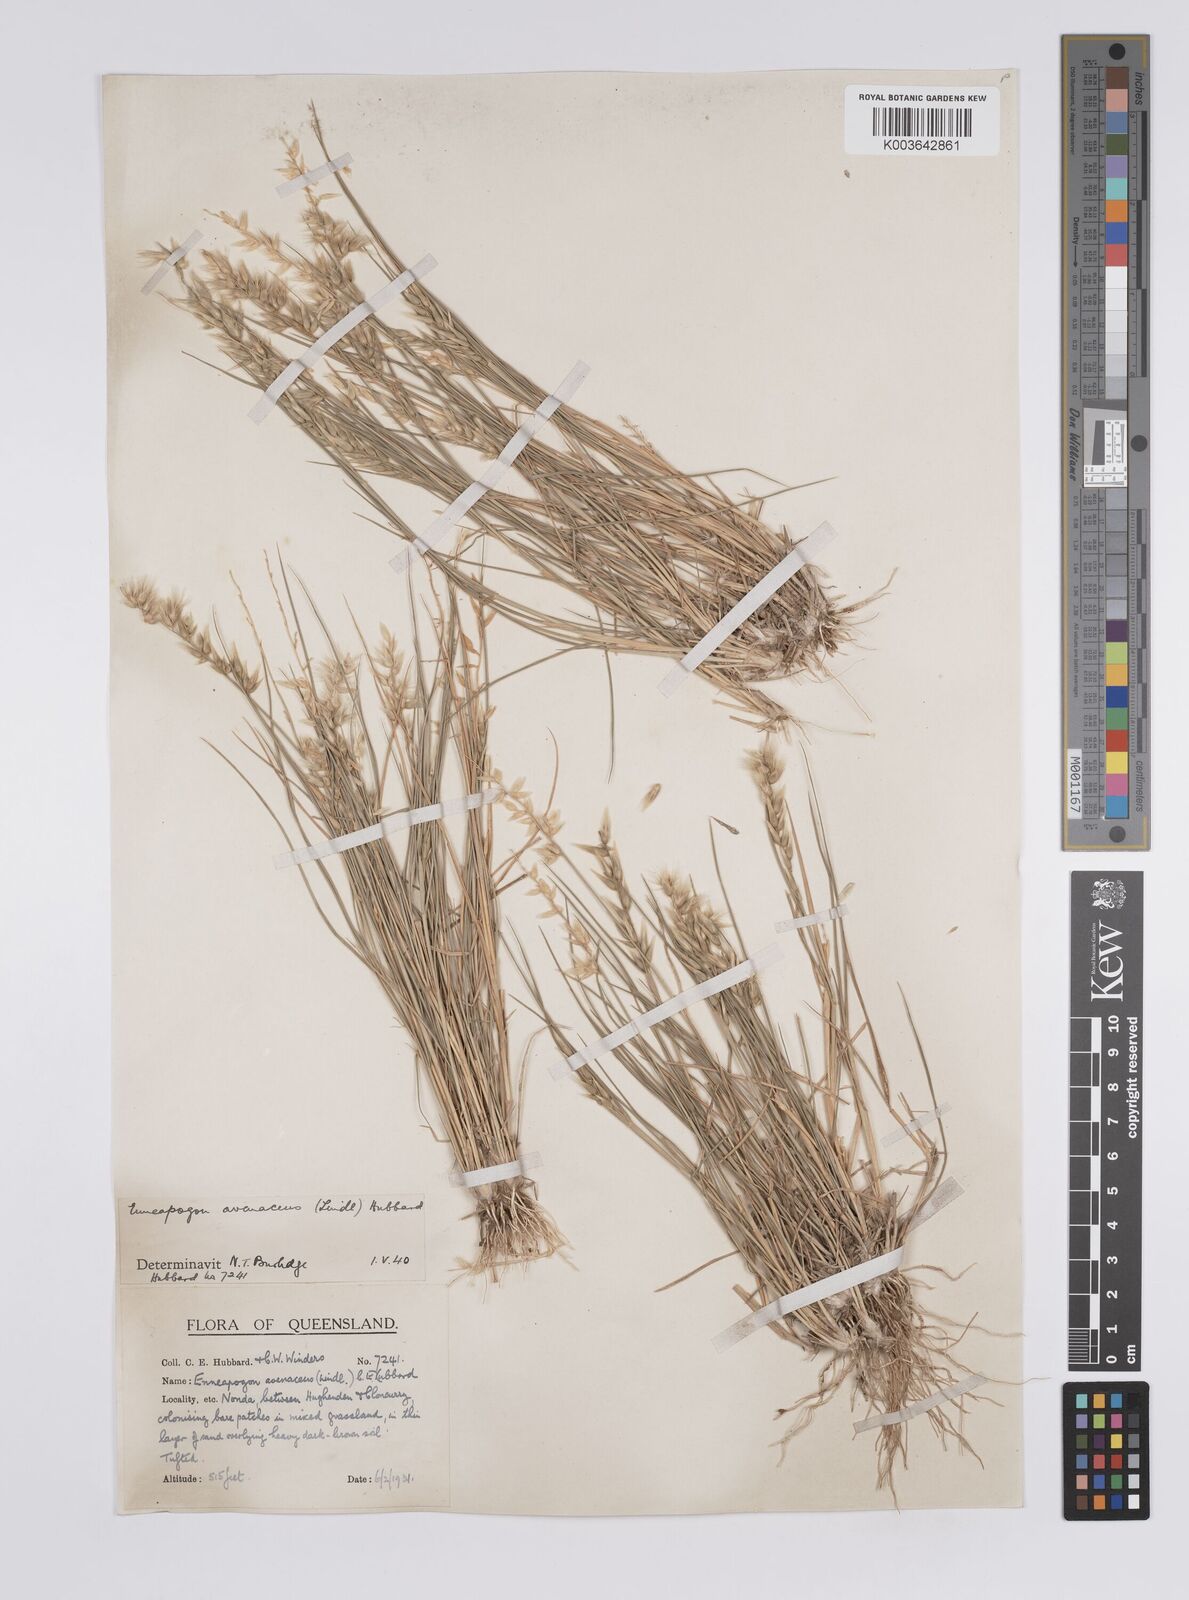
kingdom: Plantae
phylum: Tracheophyta
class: Liliopsida
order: Poales
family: Poaceae
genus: Enneapogon
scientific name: Enneapogon avenaceus
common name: Hairy oat grass
